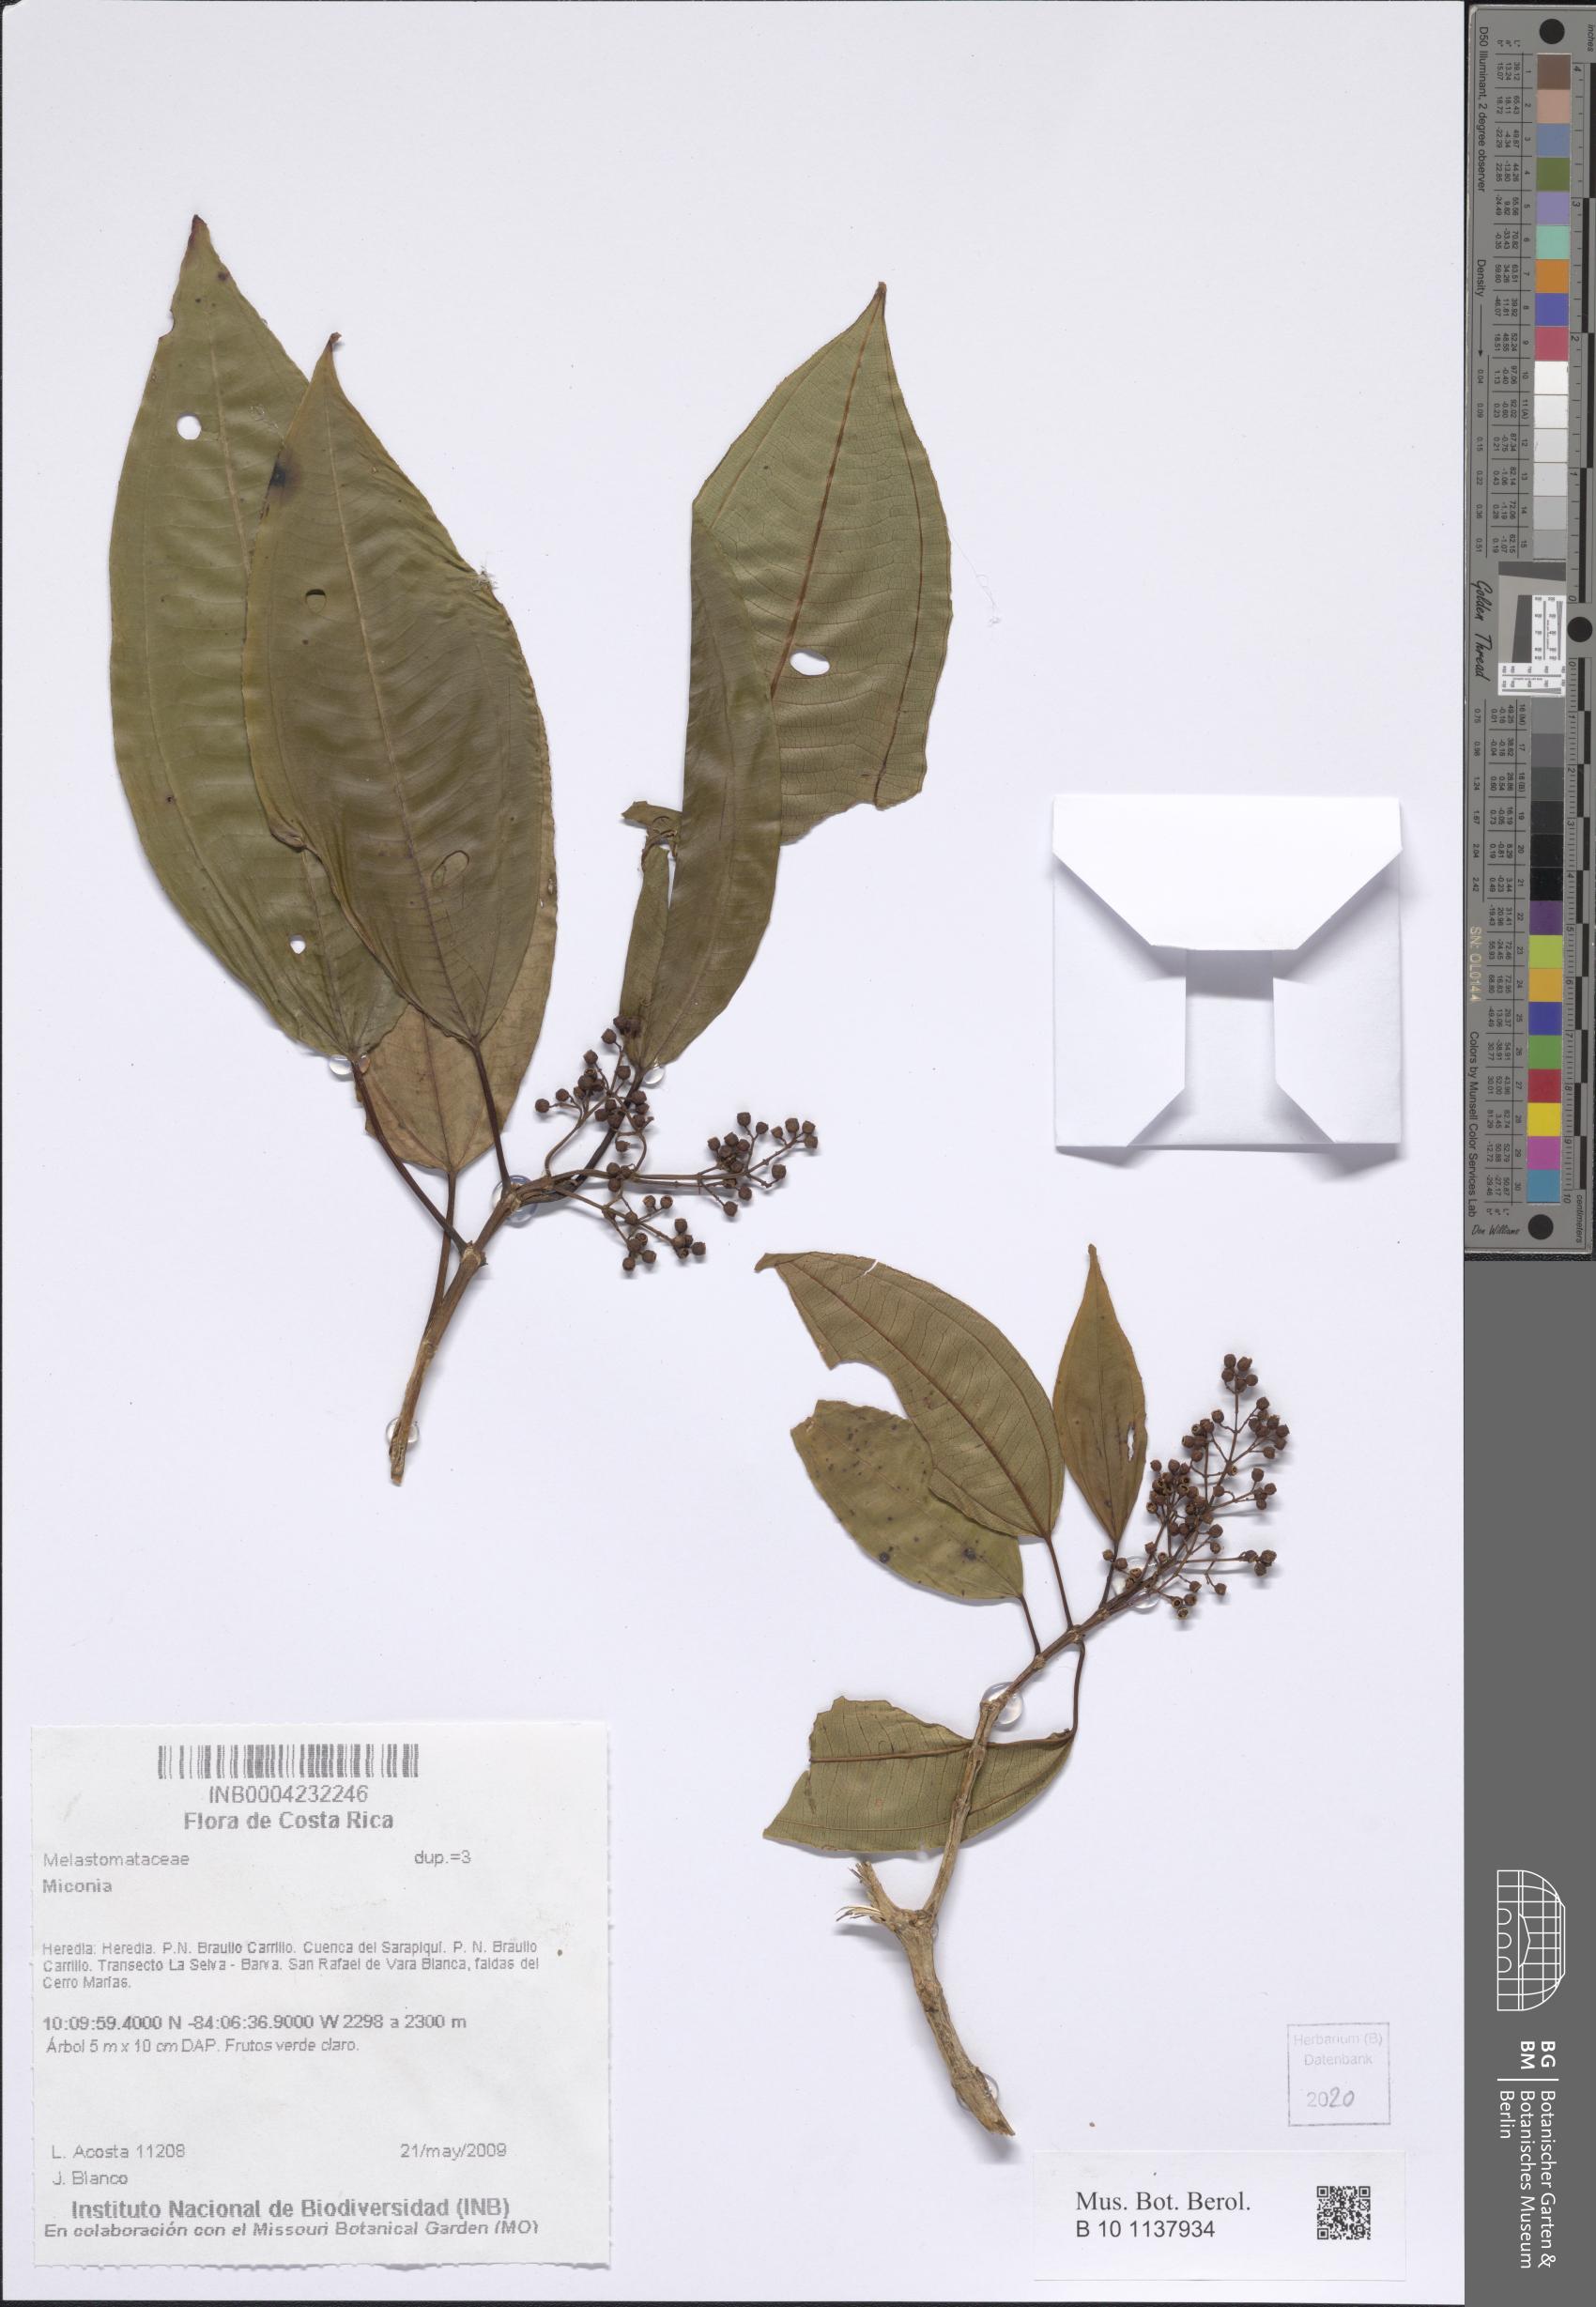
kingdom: Plantae
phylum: Tracheophyta
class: Magnoliopsida
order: Myrtales
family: Melastomataceae
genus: Miconia
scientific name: Miconia
